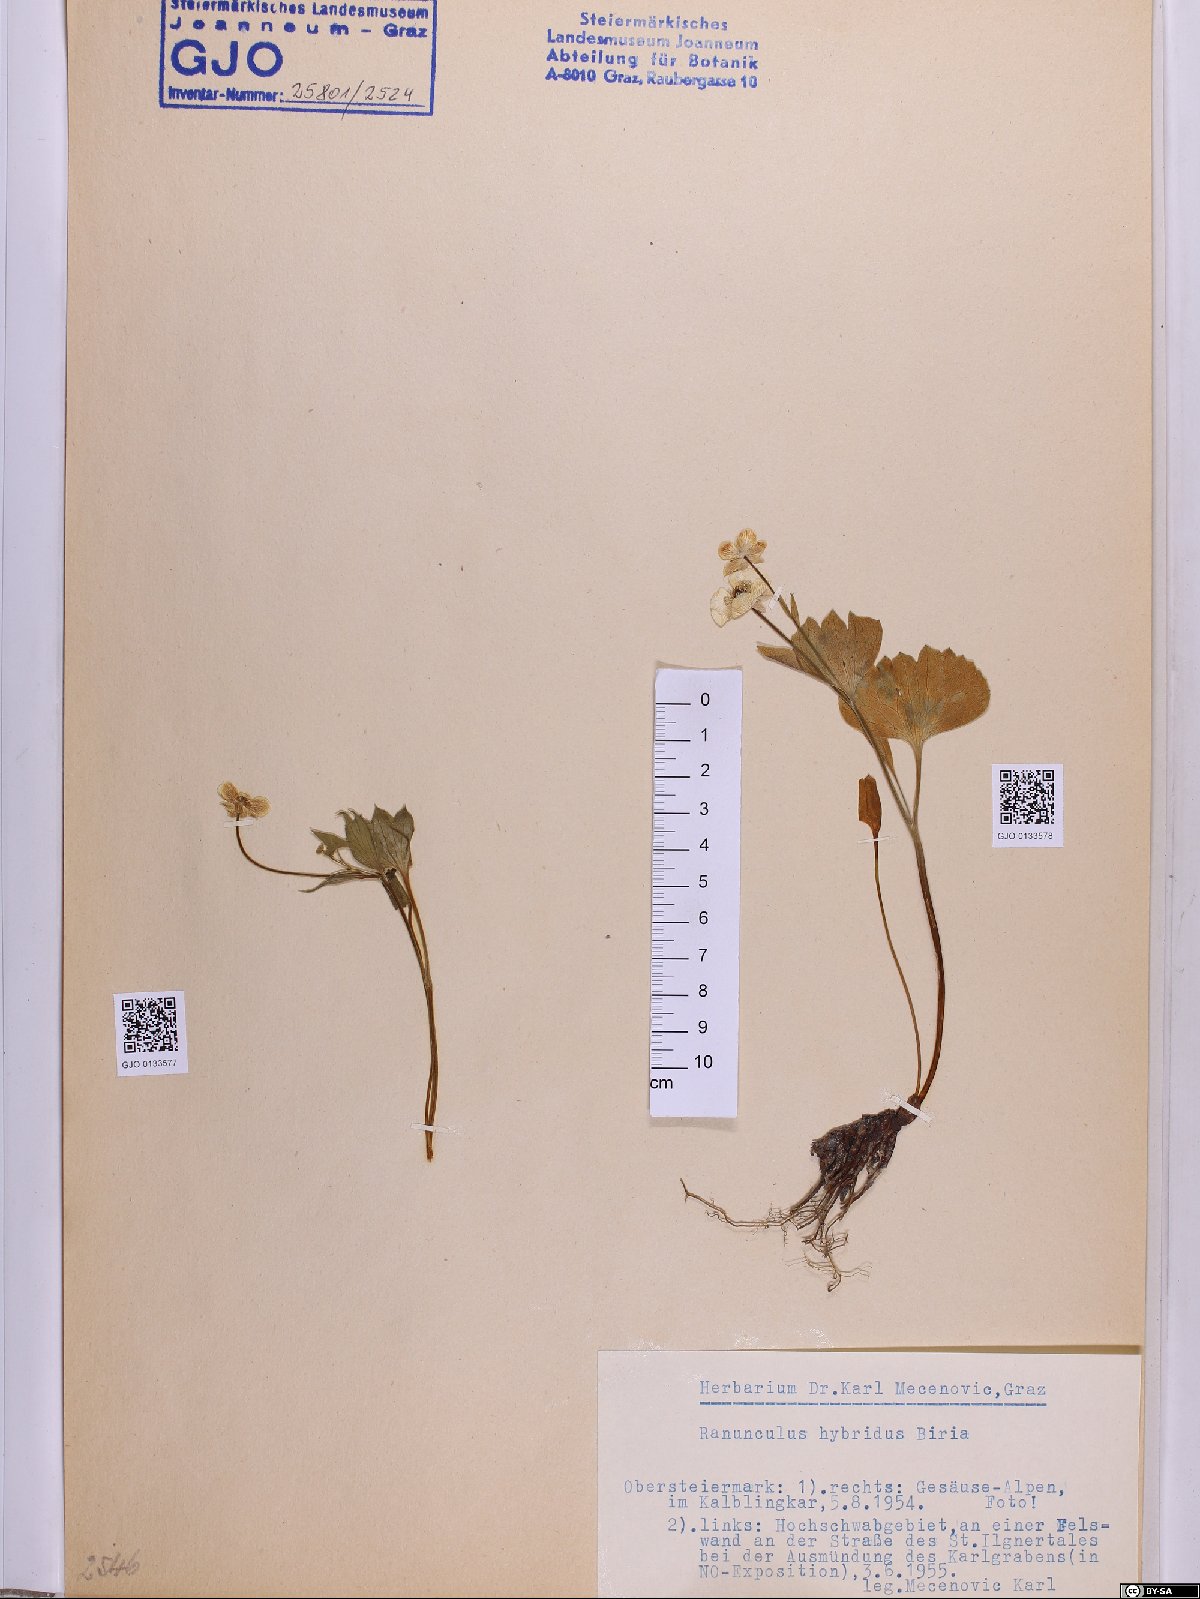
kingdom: Plantae
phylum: Tracheophyta
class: Magnoliopsida
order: Ranunculales
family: Ranunculaceae
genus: Ranunculus
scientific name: Ranunculus hybridus
